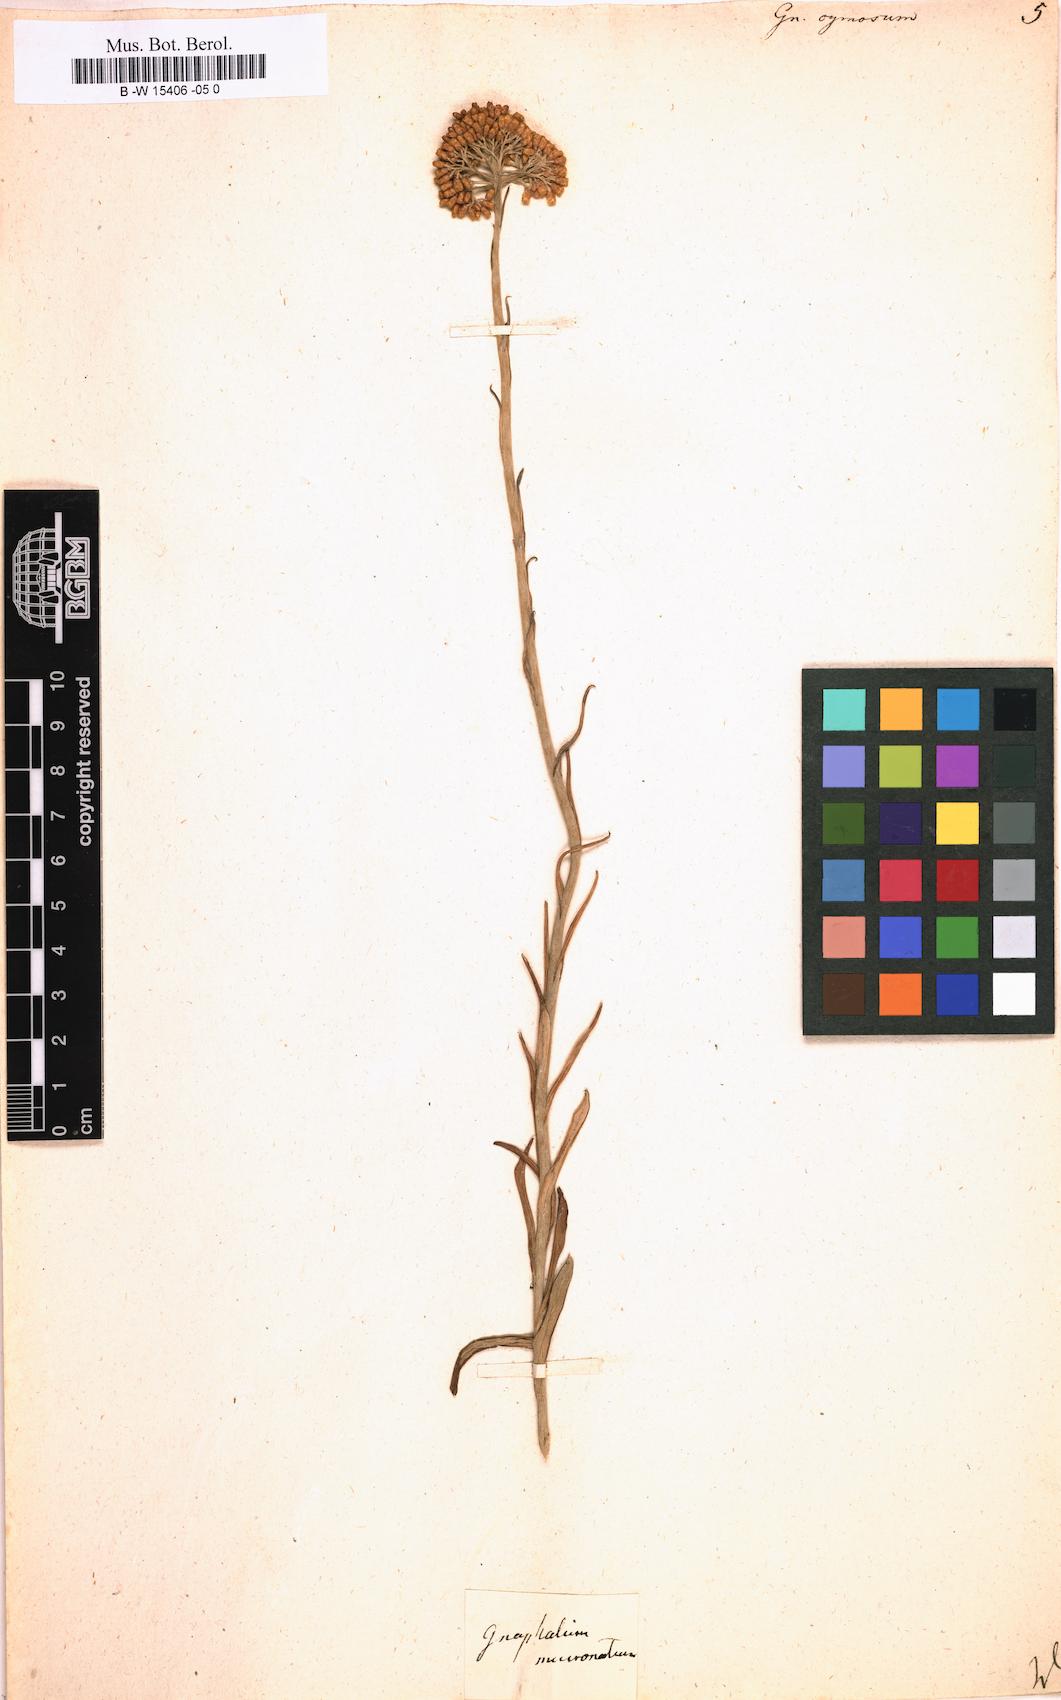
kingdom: Plantae
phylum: Tracheophyta
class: Magnoliopsida
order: Asterales
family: Asteraceae
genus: Helichrysum
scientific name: Helichrysum cymosum
